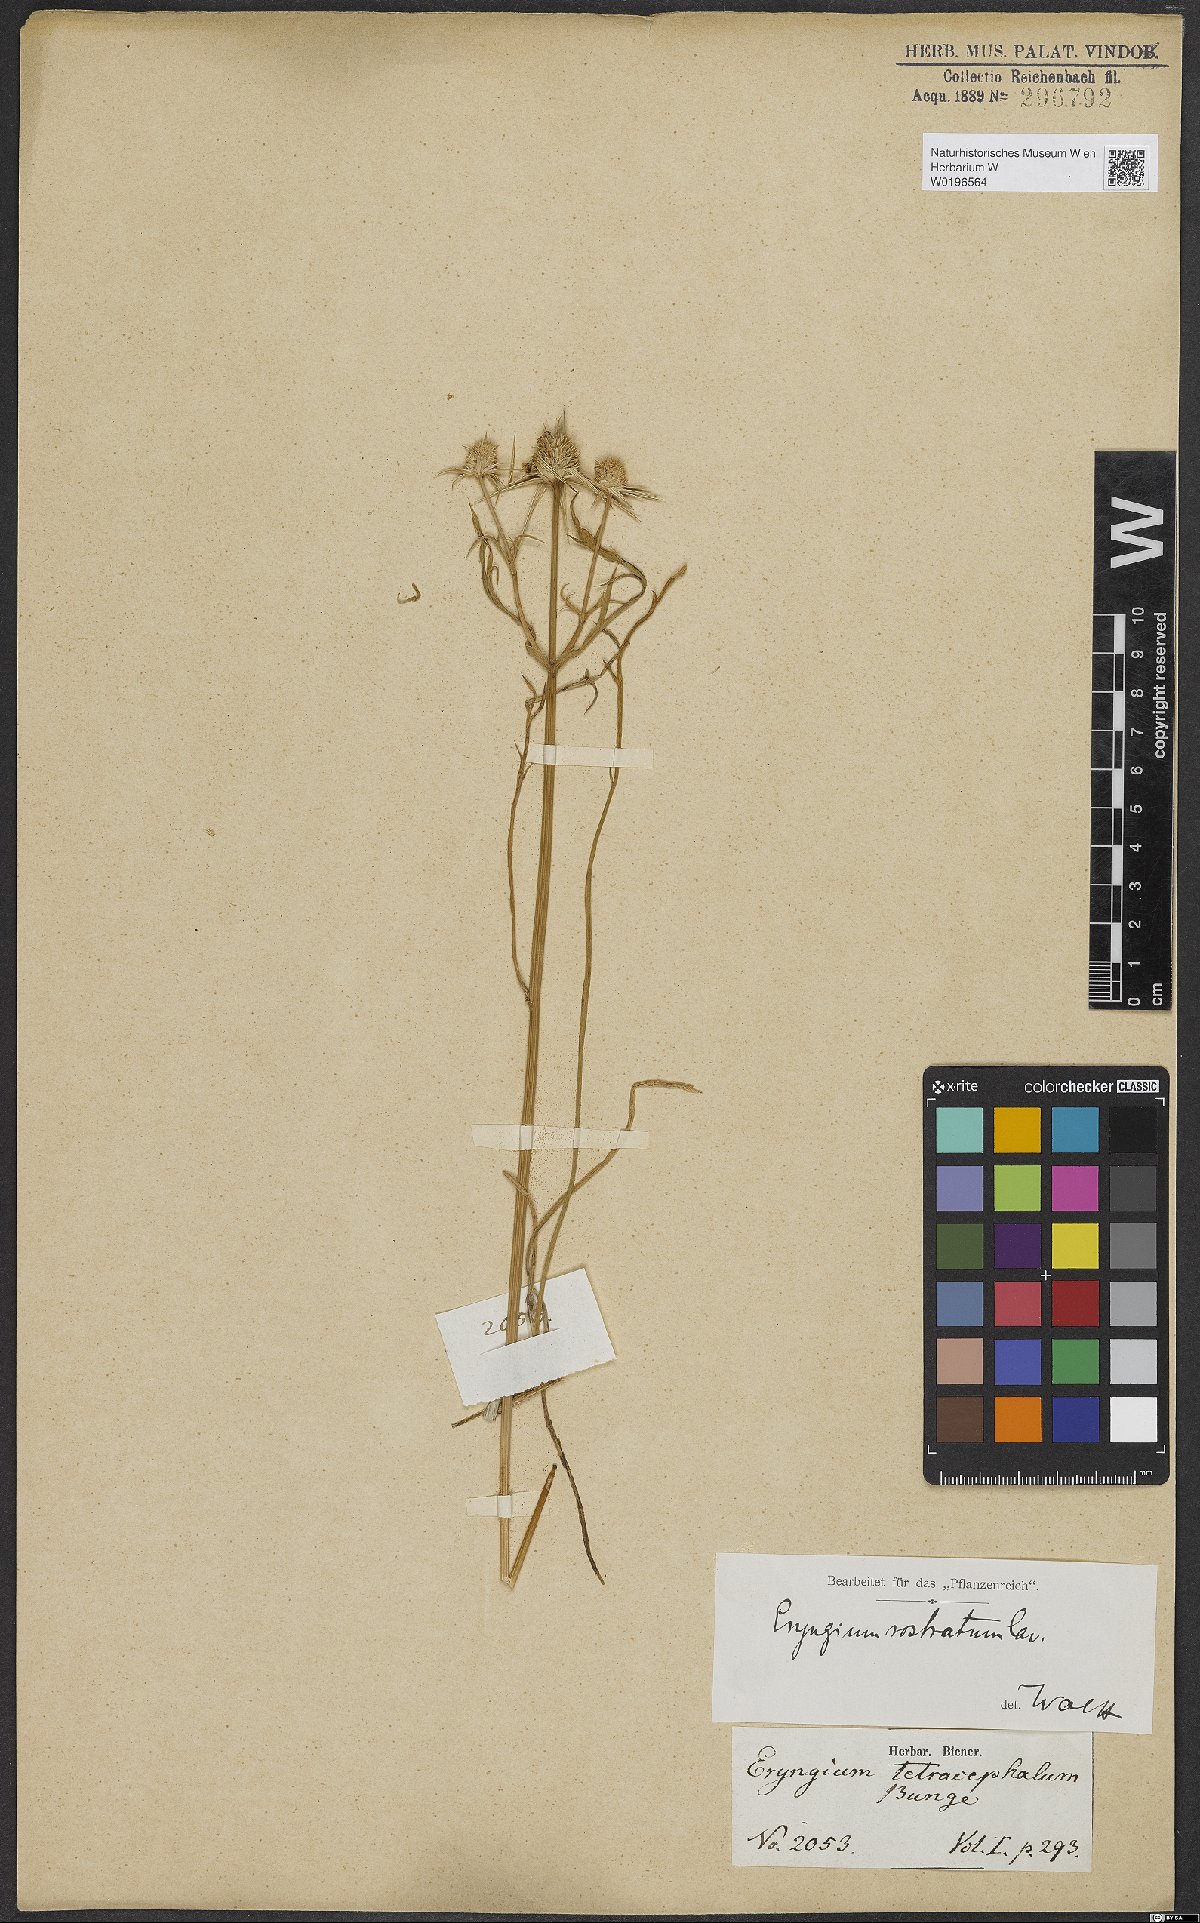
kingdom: Plantae
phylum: Tracheophyta
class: Magnoliopsida
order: Apiales
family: Apiaceae
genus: Eryngium
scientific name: Eryngium rostratum
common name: Blue eryngo
